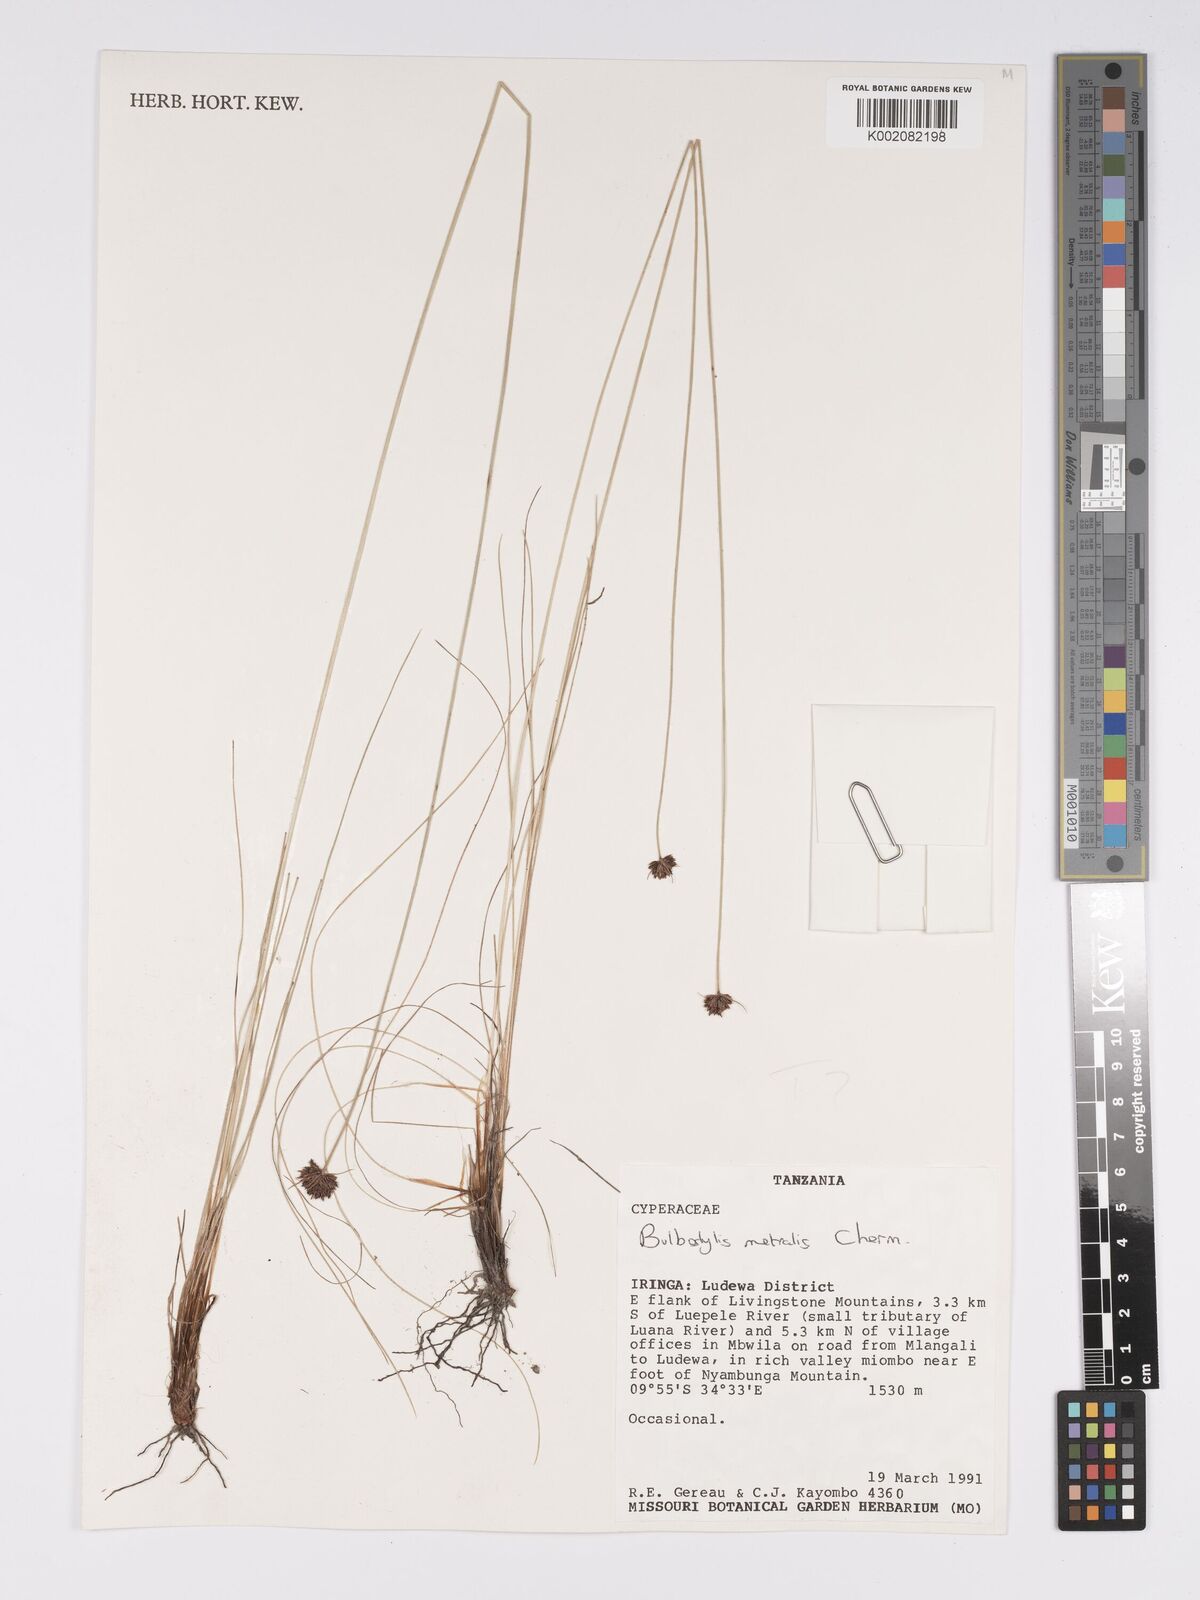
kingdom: Plantae
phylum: Tracheophyta
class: Liliopsida
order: Poales
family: Cyperaceae
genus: Bulbostylis
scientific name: Bulbostylis filamentosa
